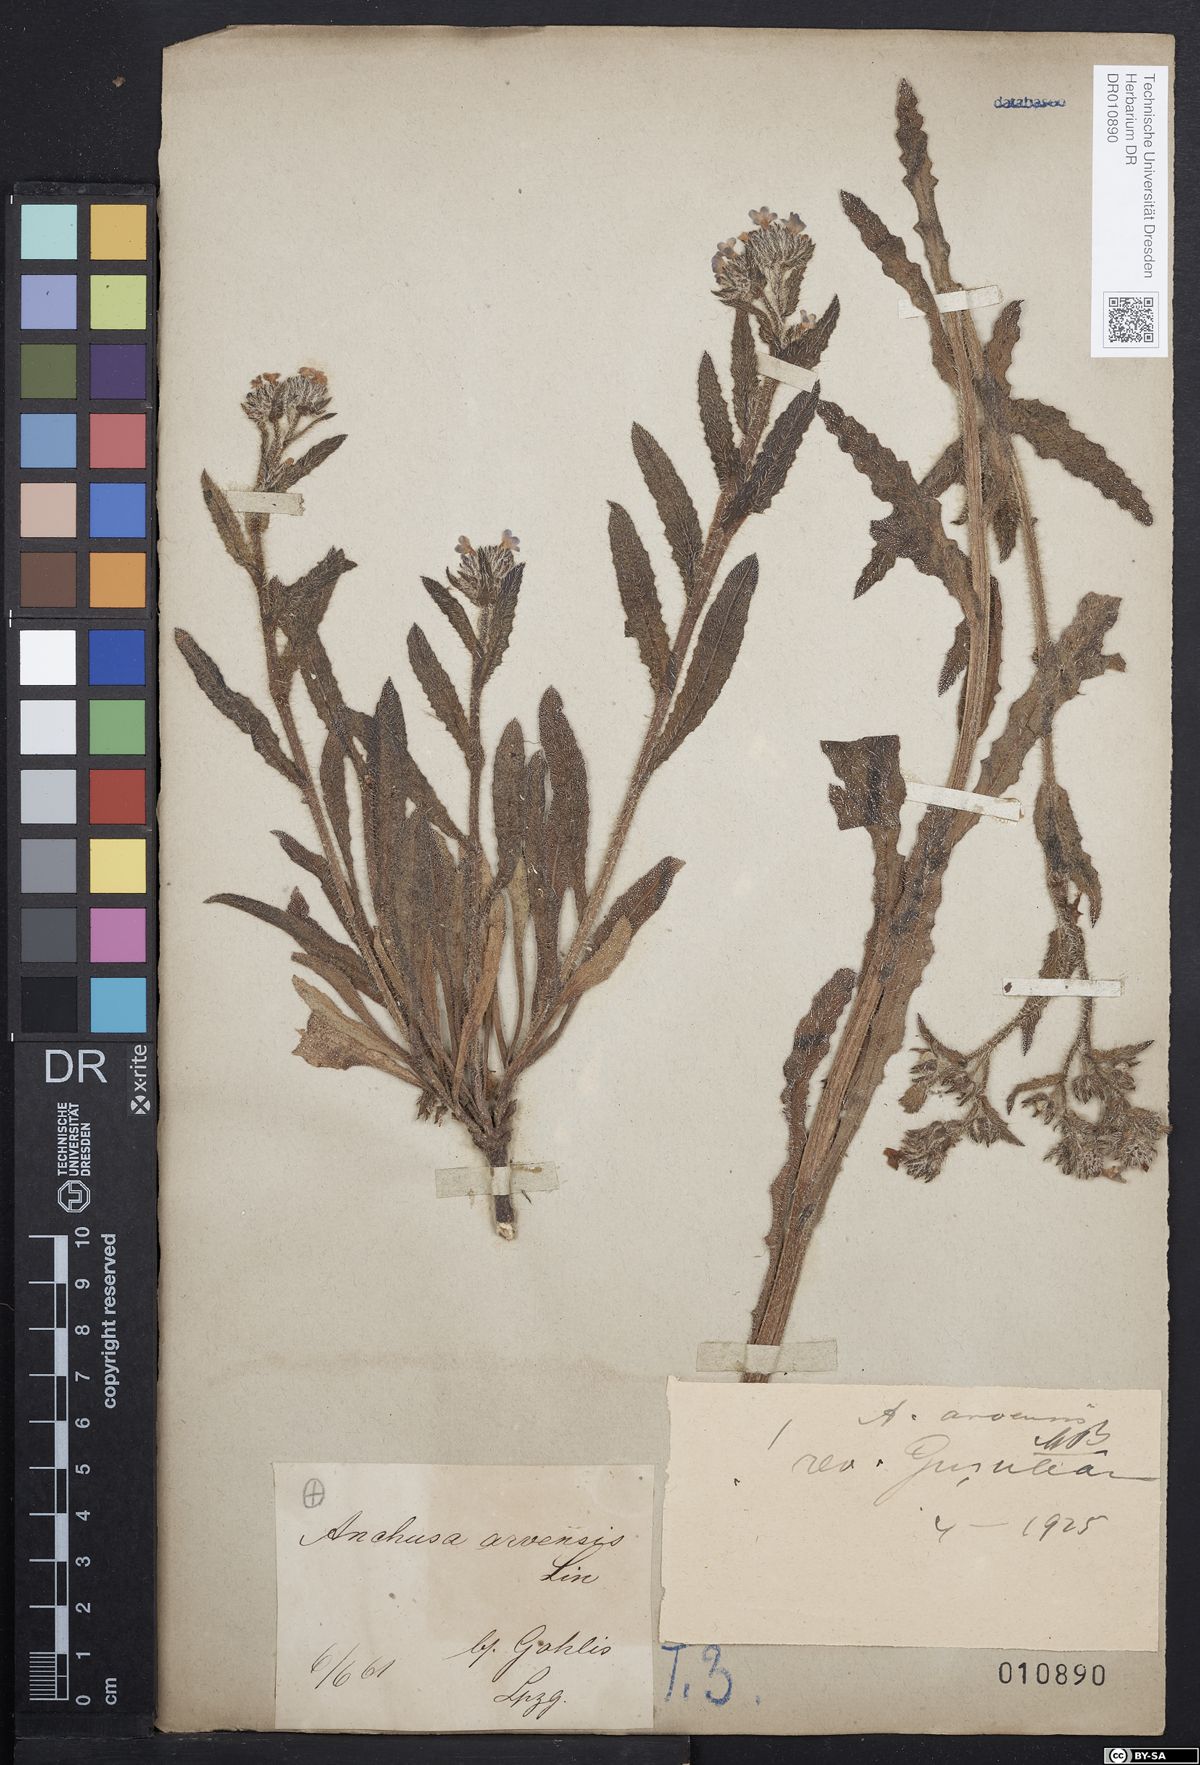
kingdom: Plantae
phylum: Tracheophyta
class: Magnoliopsida
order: Boraginales
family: Boraginaceae
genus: Lycopsis
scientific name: Lycopsis arvensis
